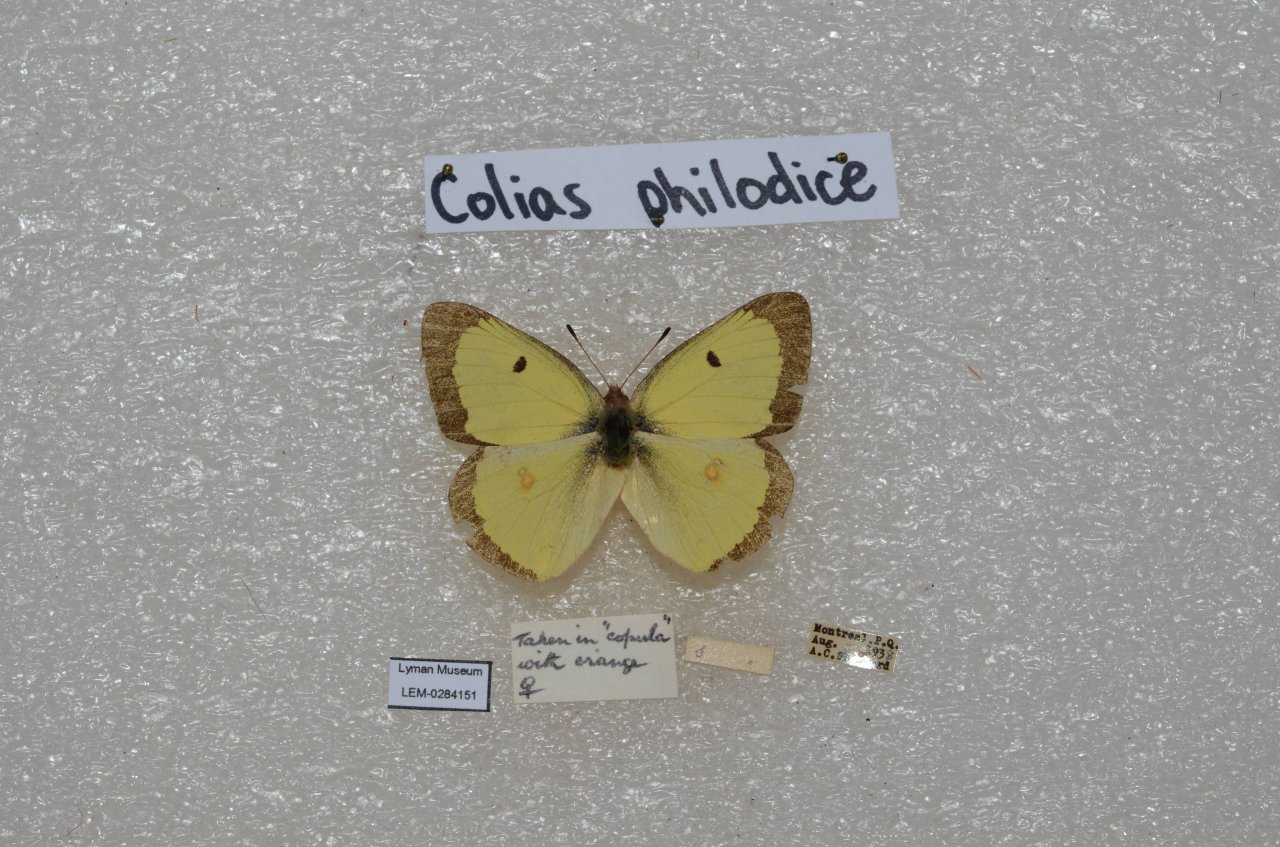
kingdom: Animalia
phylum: Arthropoda
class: Insecta
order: Lepidoptera
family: Pieridae
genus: Colias
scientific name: Colias philodice
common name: Clouded Sulphur
